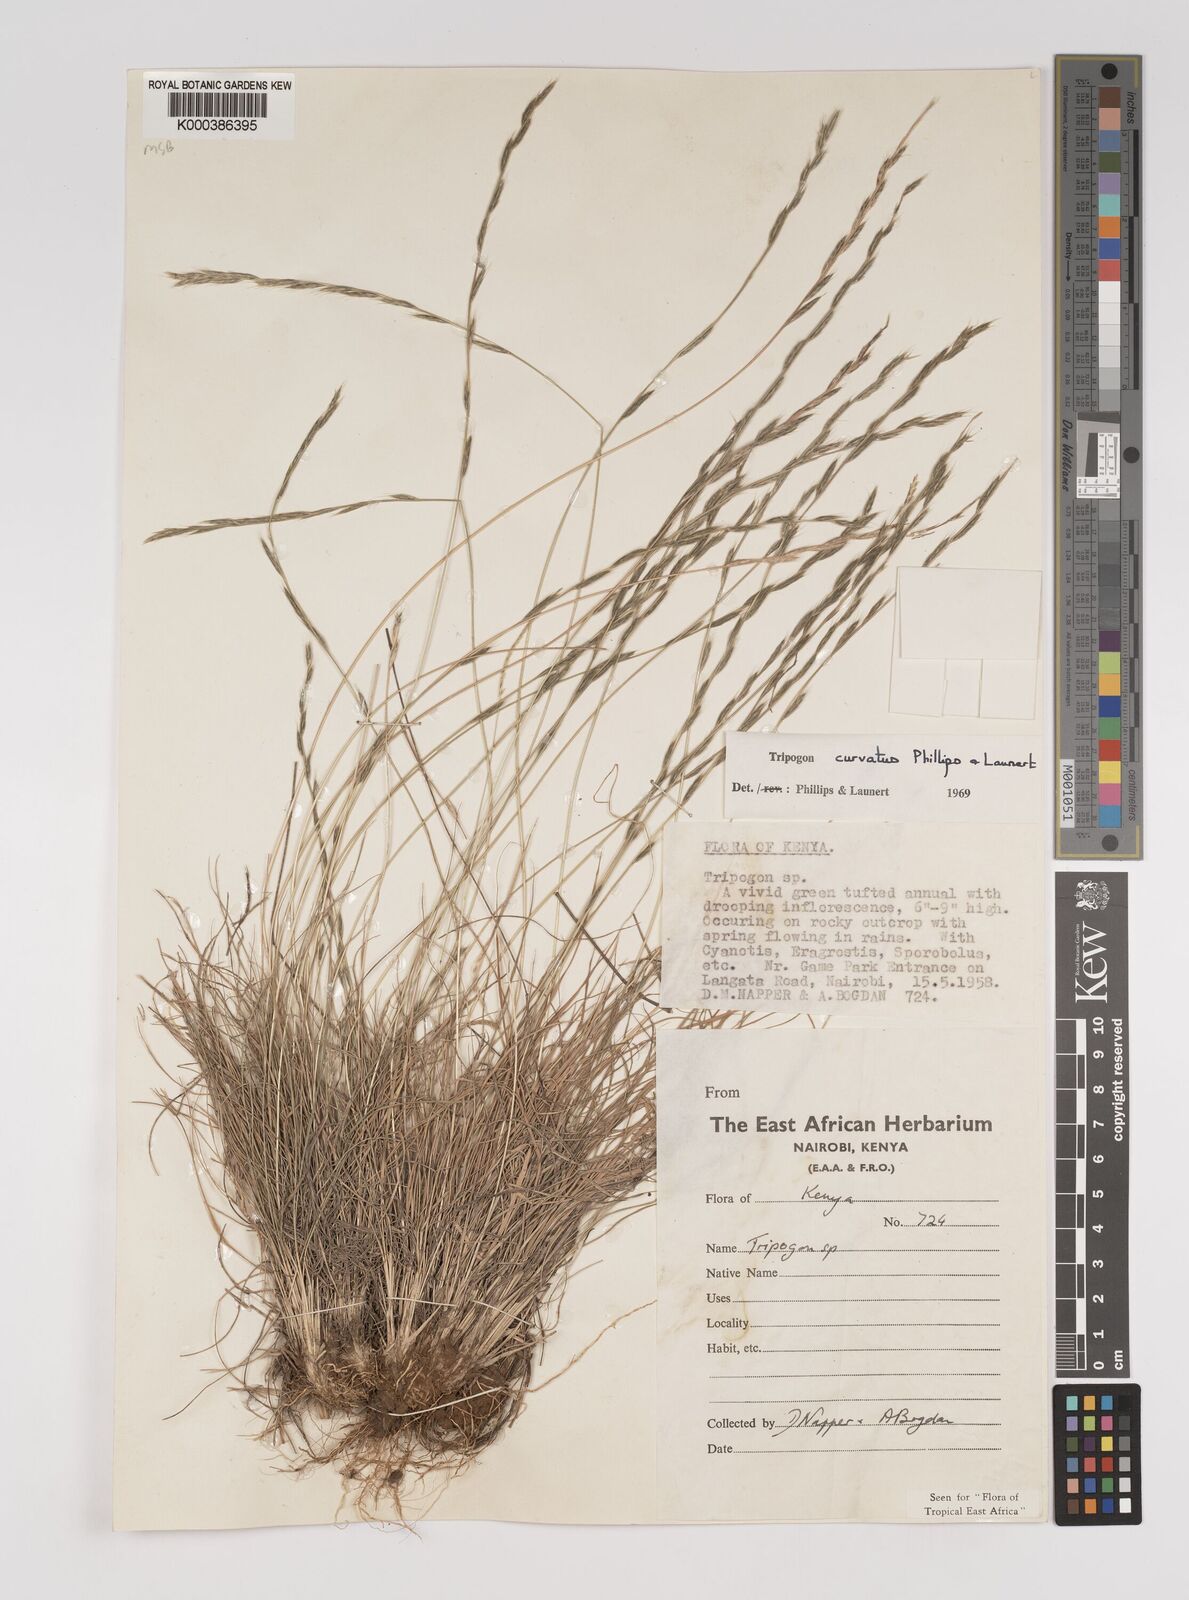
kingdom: Plantae
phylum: Tracheophyta
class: Liliopsida
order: Poales
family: Poaceae
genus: Tripogon
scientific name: Tripogon curvatus
